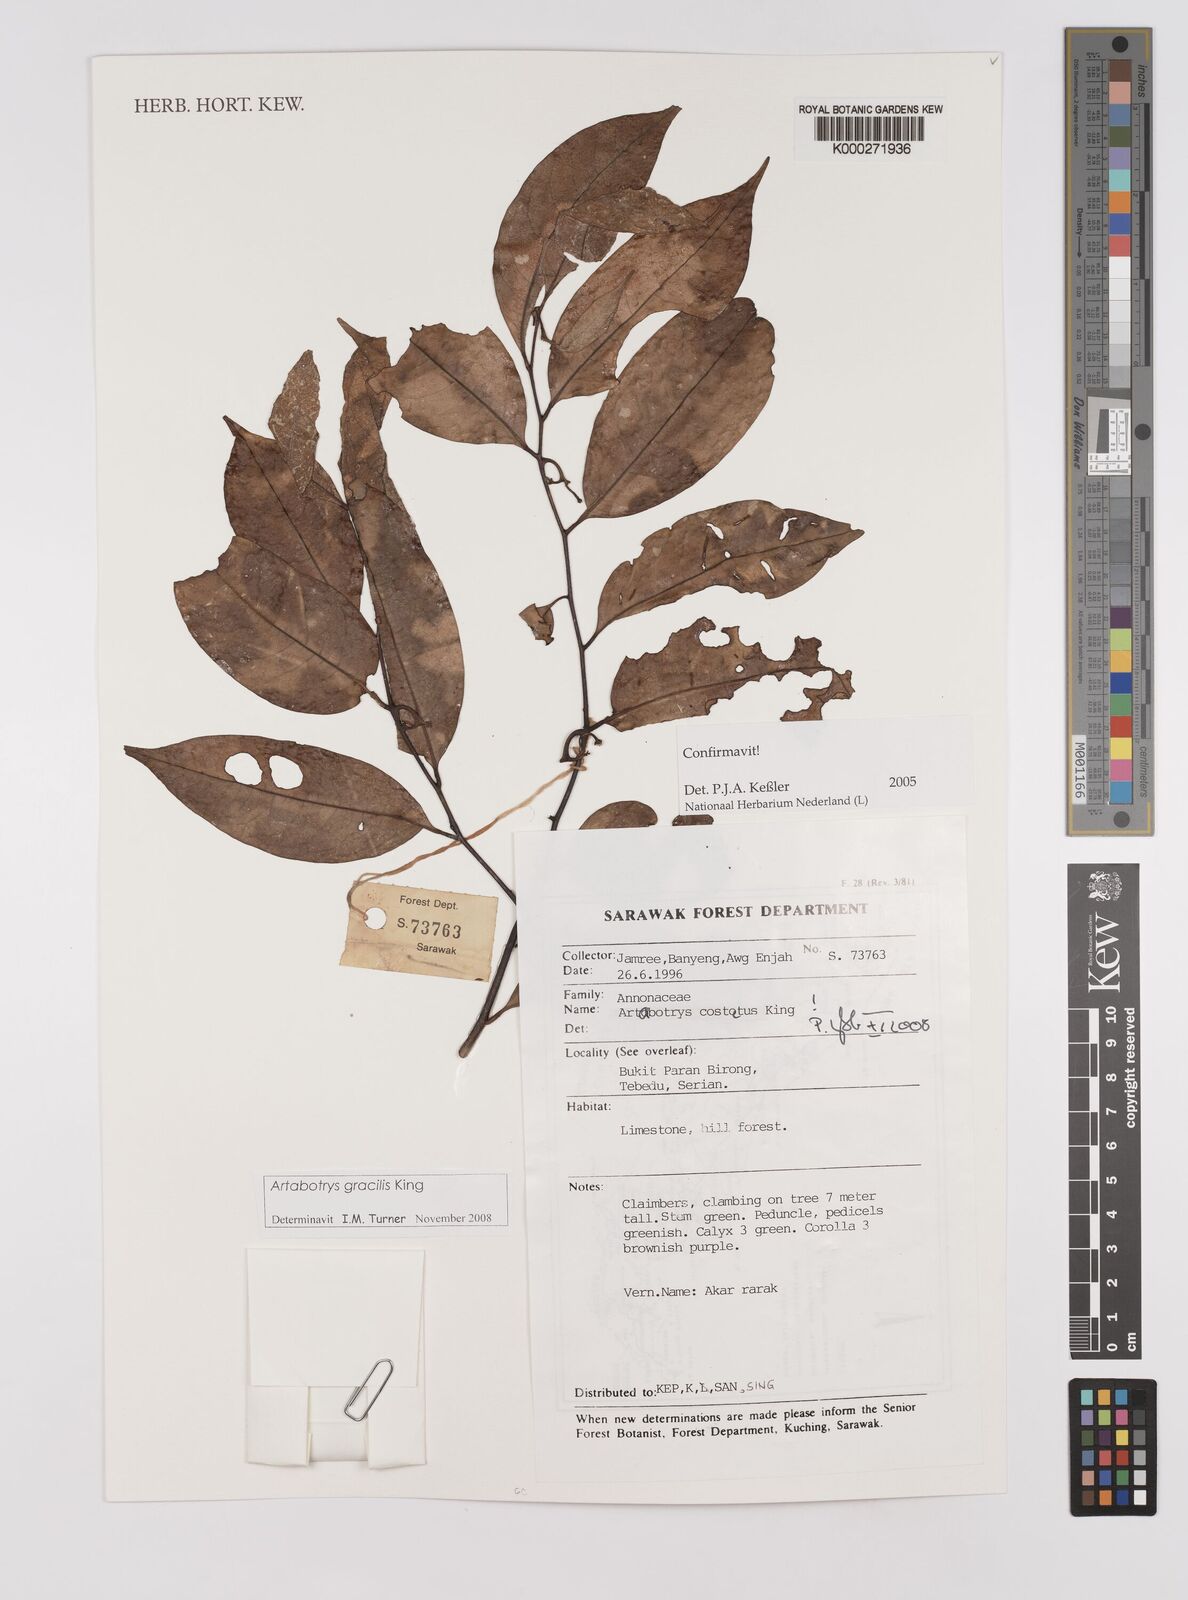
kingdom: Plantae
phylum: Tracheophyta
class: Magnoliopsida
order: Magnoliales
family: Annonaceae
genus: Artabotrys
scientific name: Artabotrys costatus
